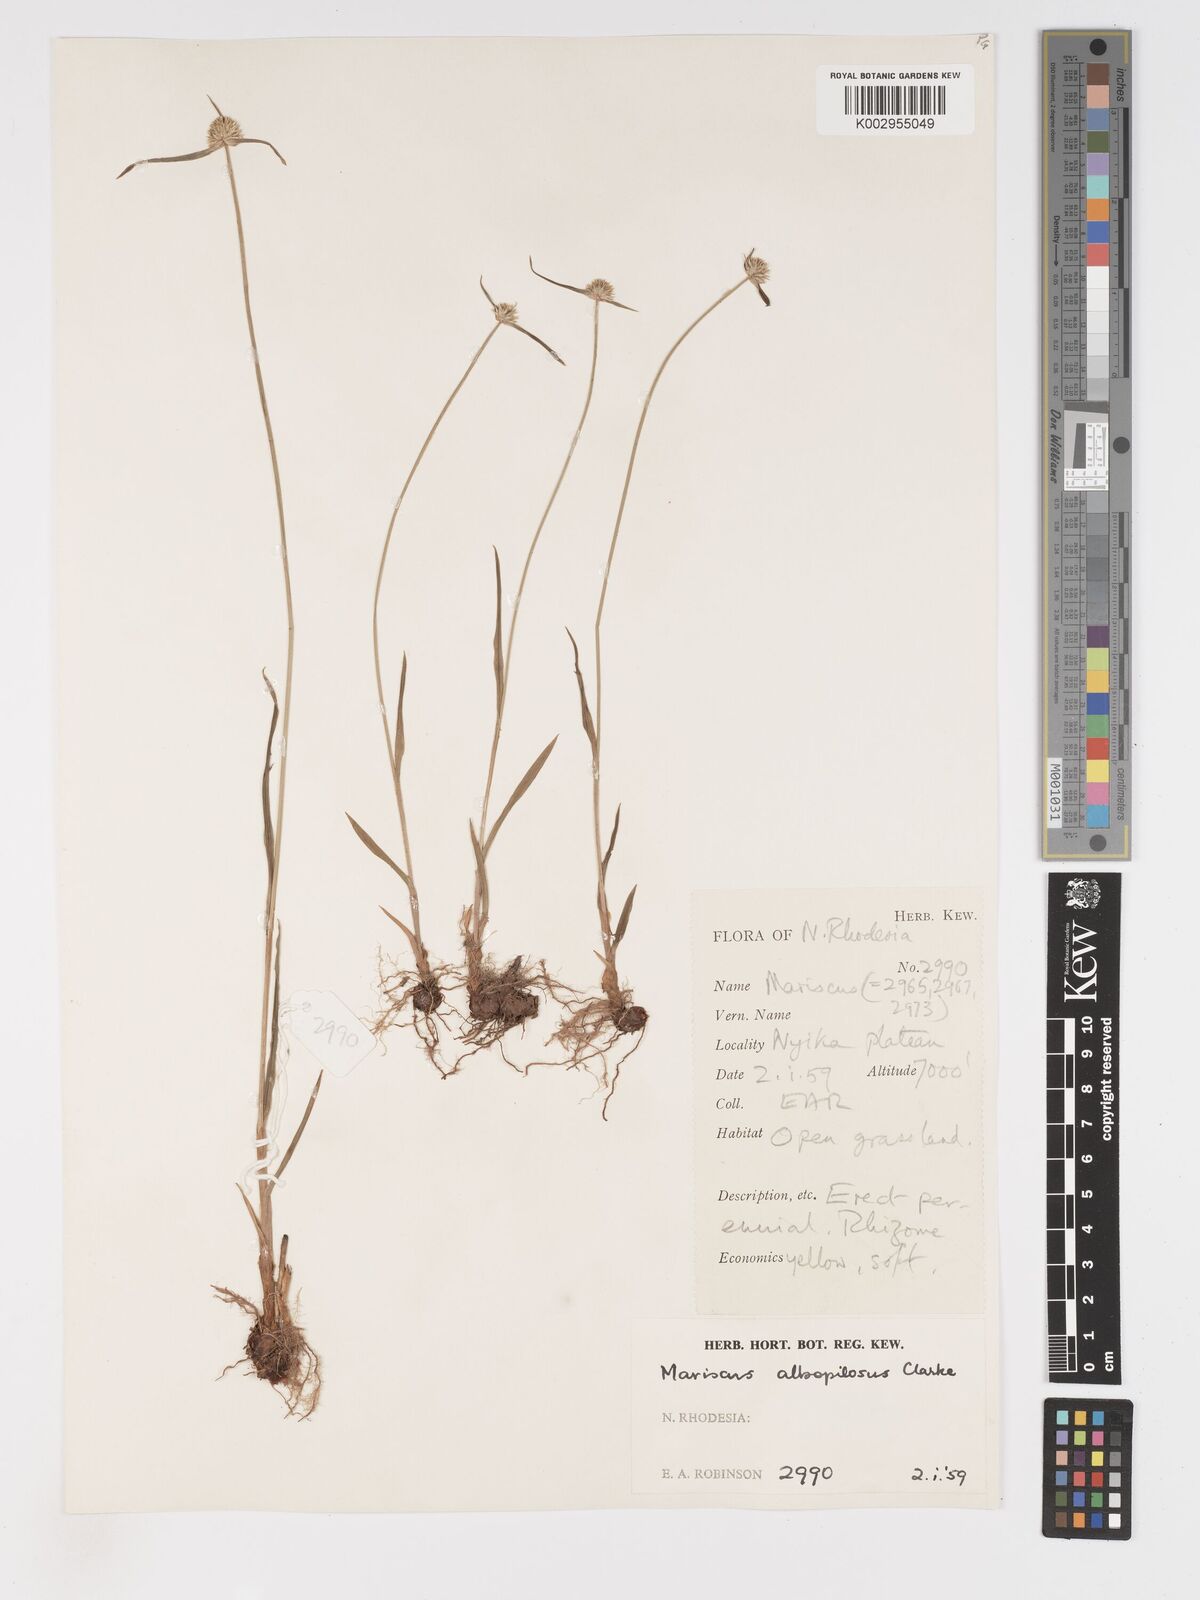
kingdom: Plantae
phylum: Tracheophyta
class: Liliopsida
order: Poales
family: Cyperaceae
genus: Cyperus
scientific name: Cyperus albopilosus
